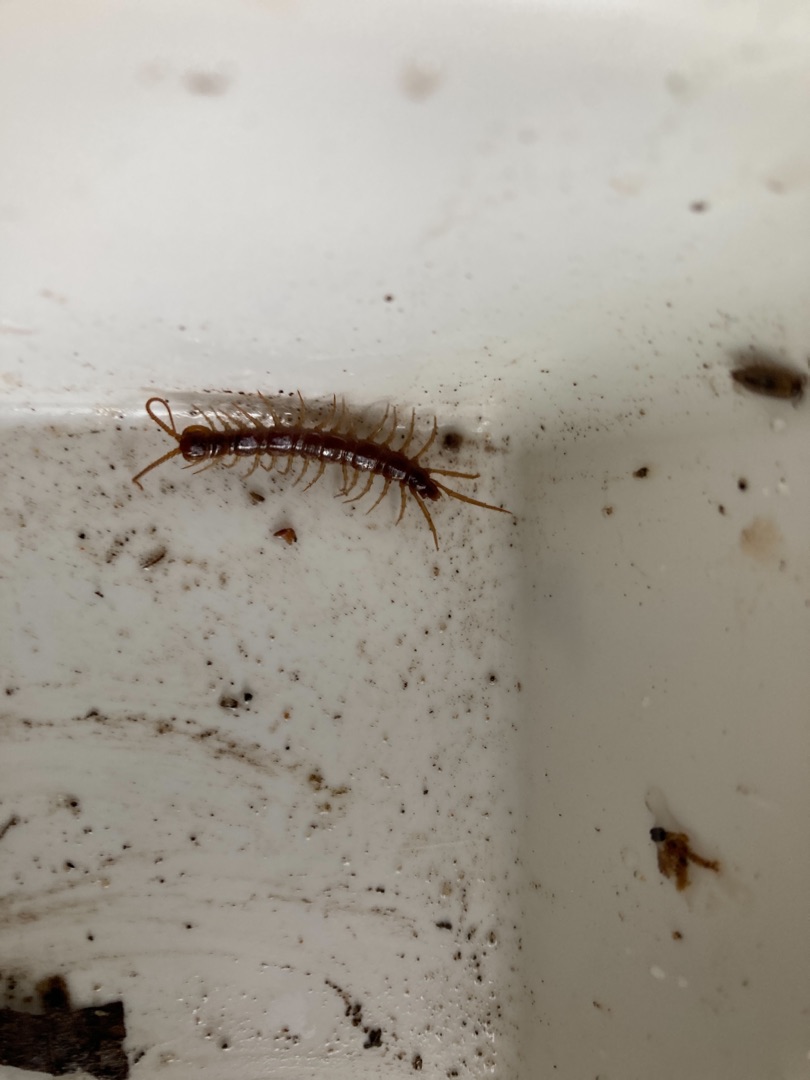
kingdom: Animalia
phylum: Arthropoda
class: Chilopoda
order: Lithobiomorpha
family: Lithobiidae
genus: Lithobius
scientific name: Lithobius forficatus
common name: Stenskolopender
